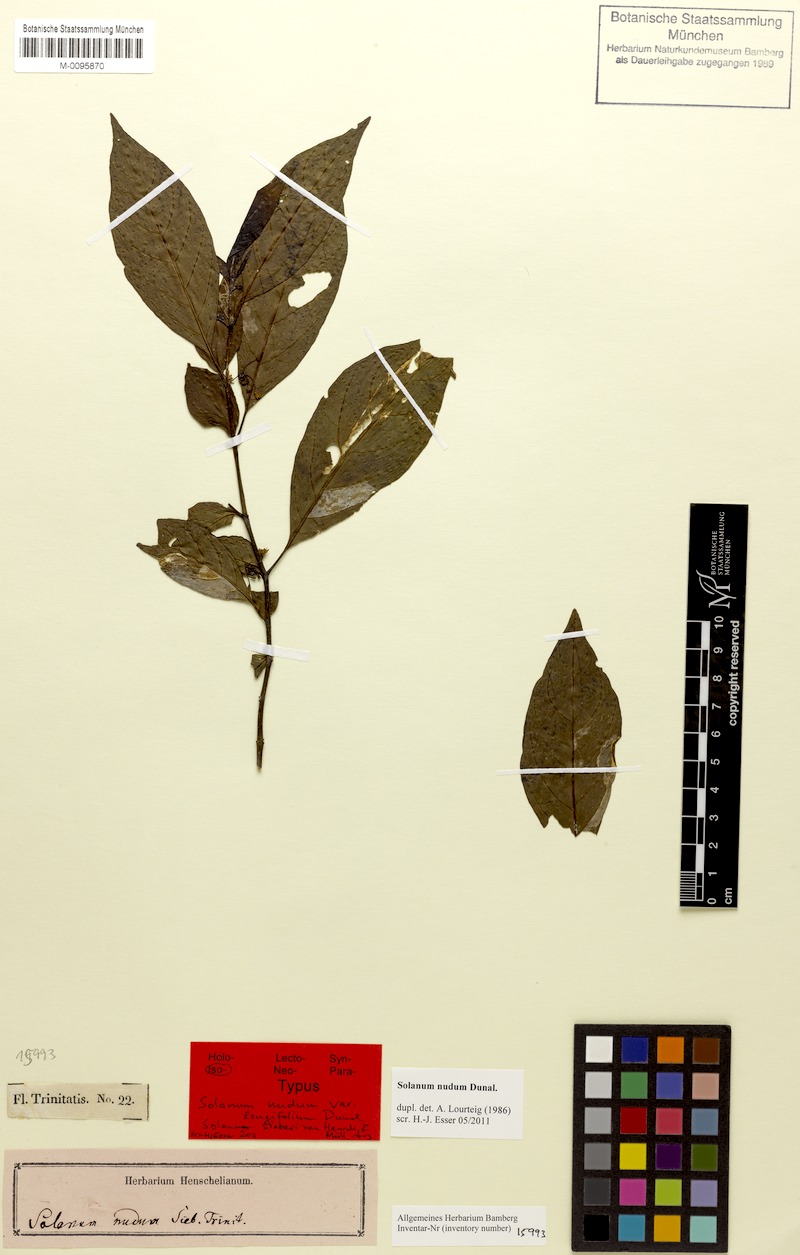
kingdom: Plantae
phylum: Tracheophyta
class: Magnoliopsida
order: Solanales
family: Solanaceae
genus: Solanum
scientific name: Solanum sieberi
